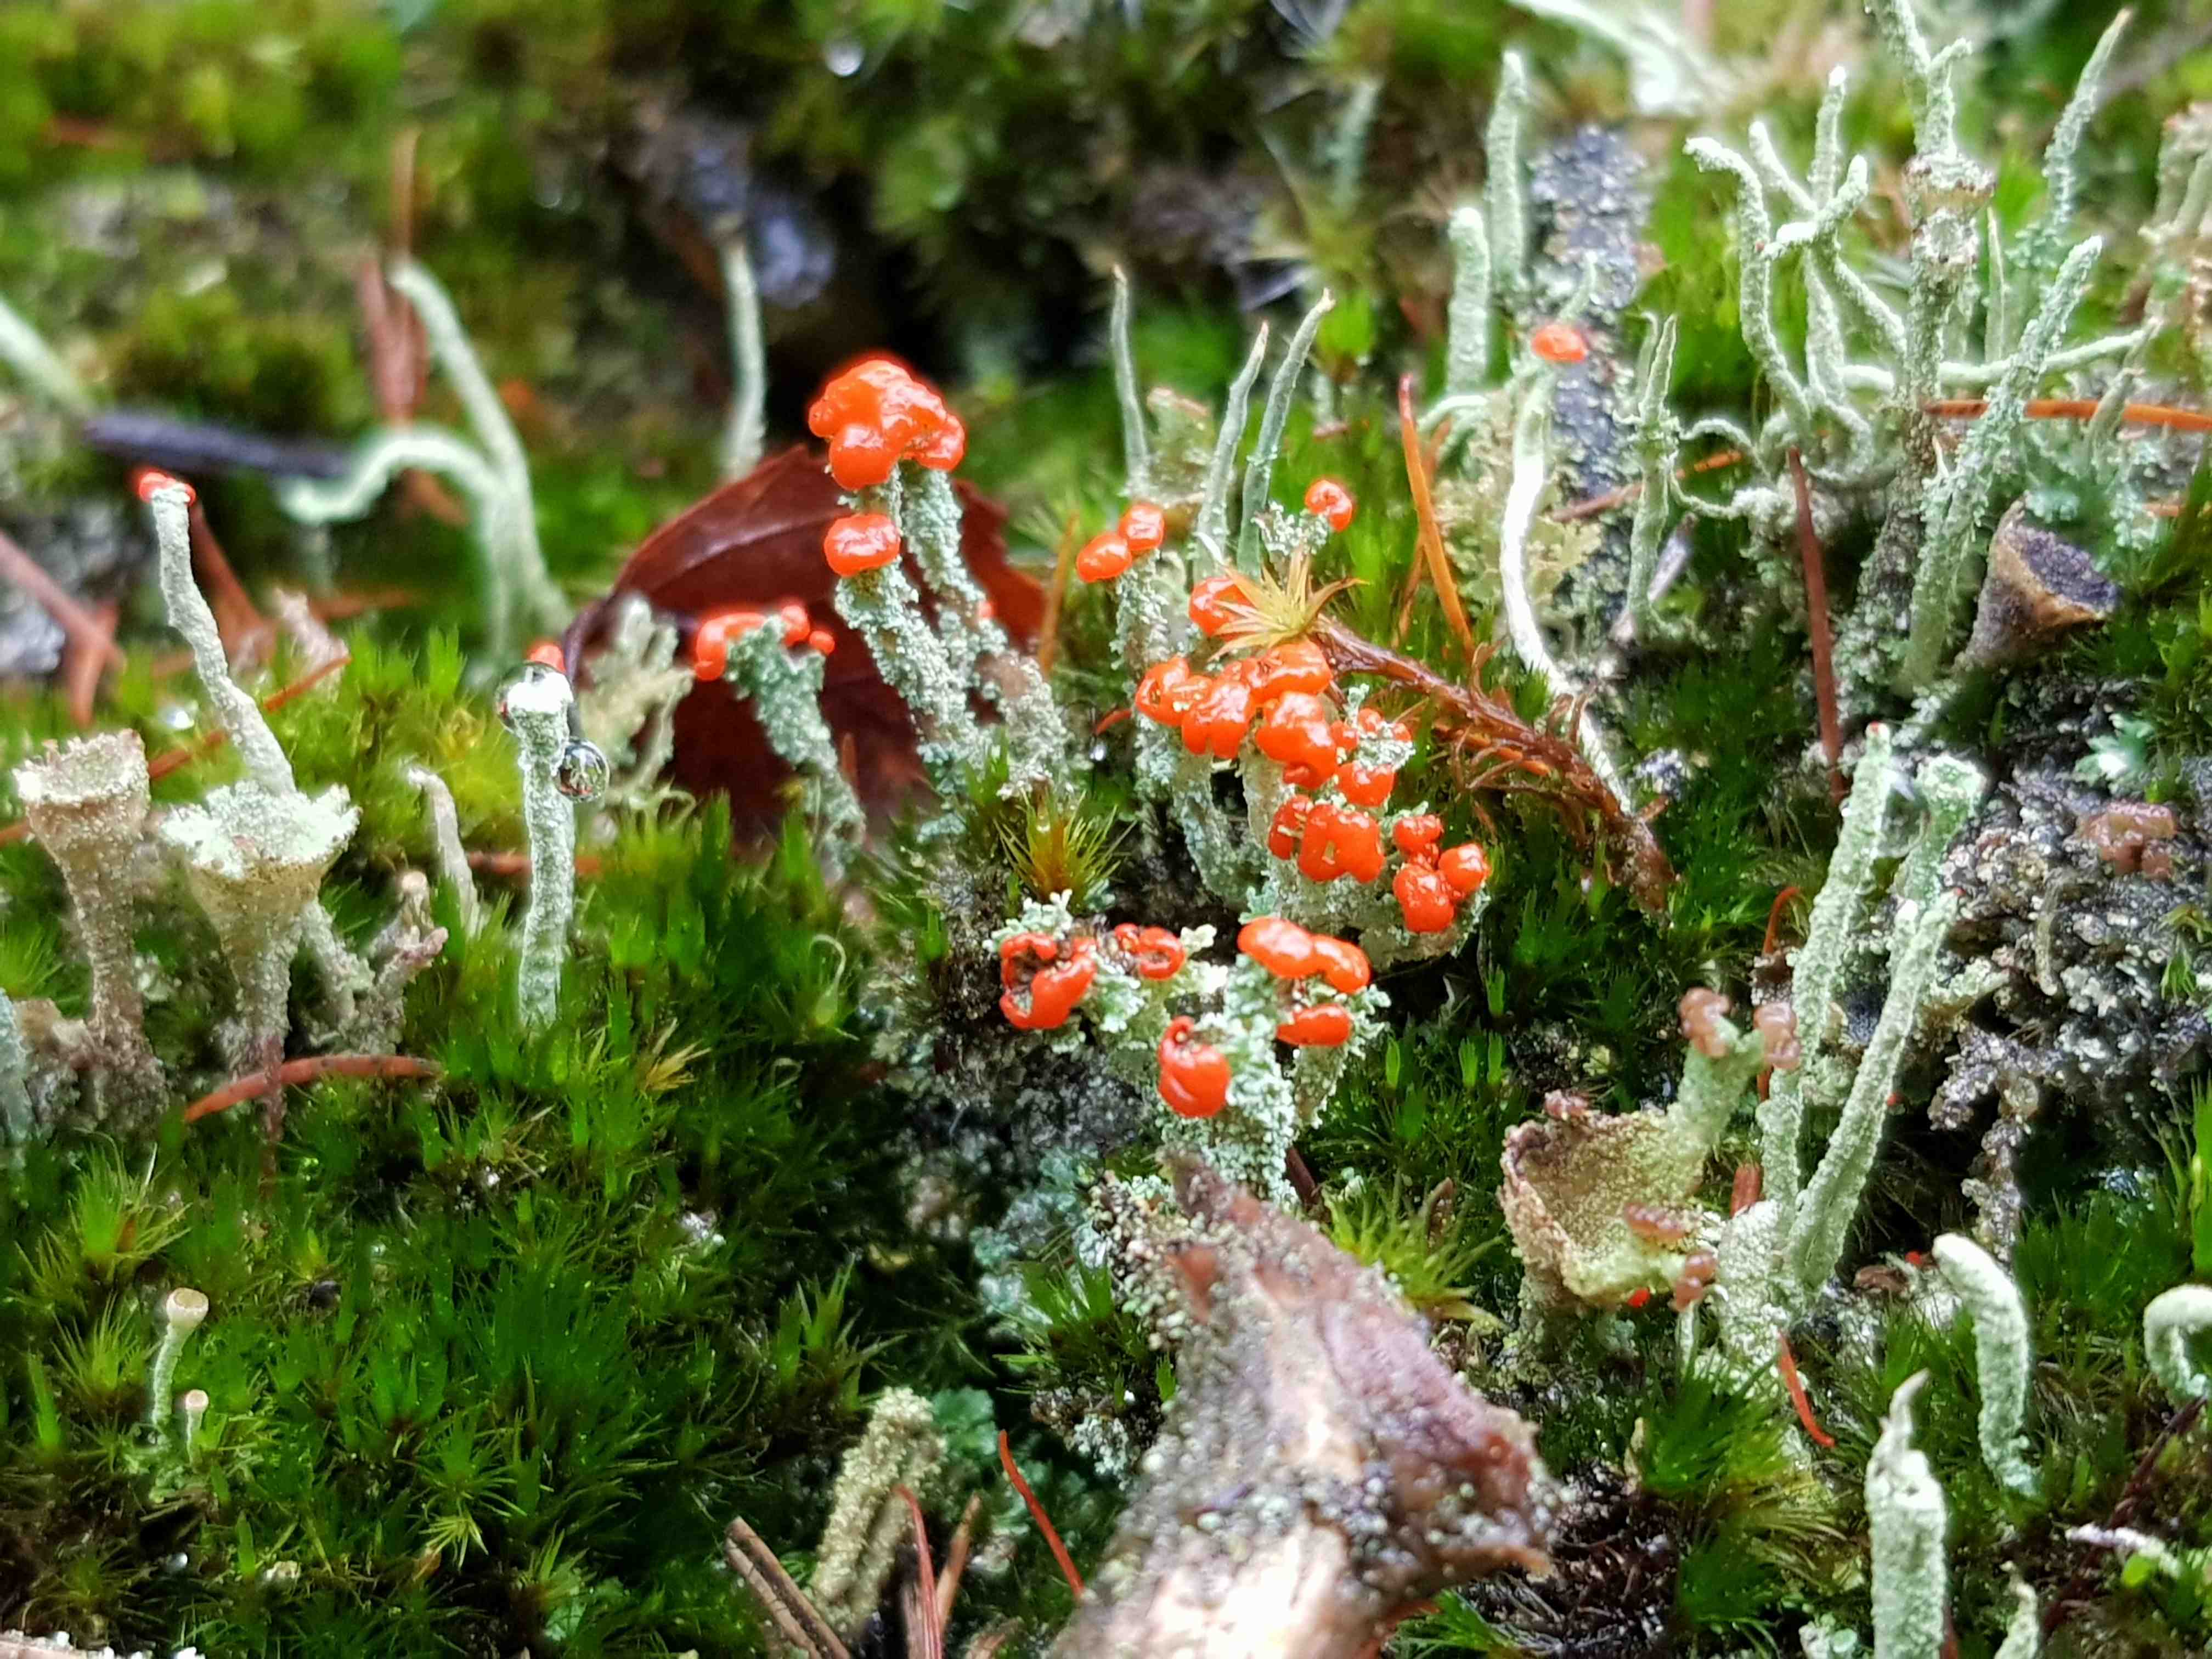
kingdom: Fungi
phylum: Ascomycota
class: Lecanoromycetes
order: Lecanorales
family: Cladoniaceae
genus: Cladonia
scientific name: Cladonia floerkeana
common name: lakrød bægerlav
